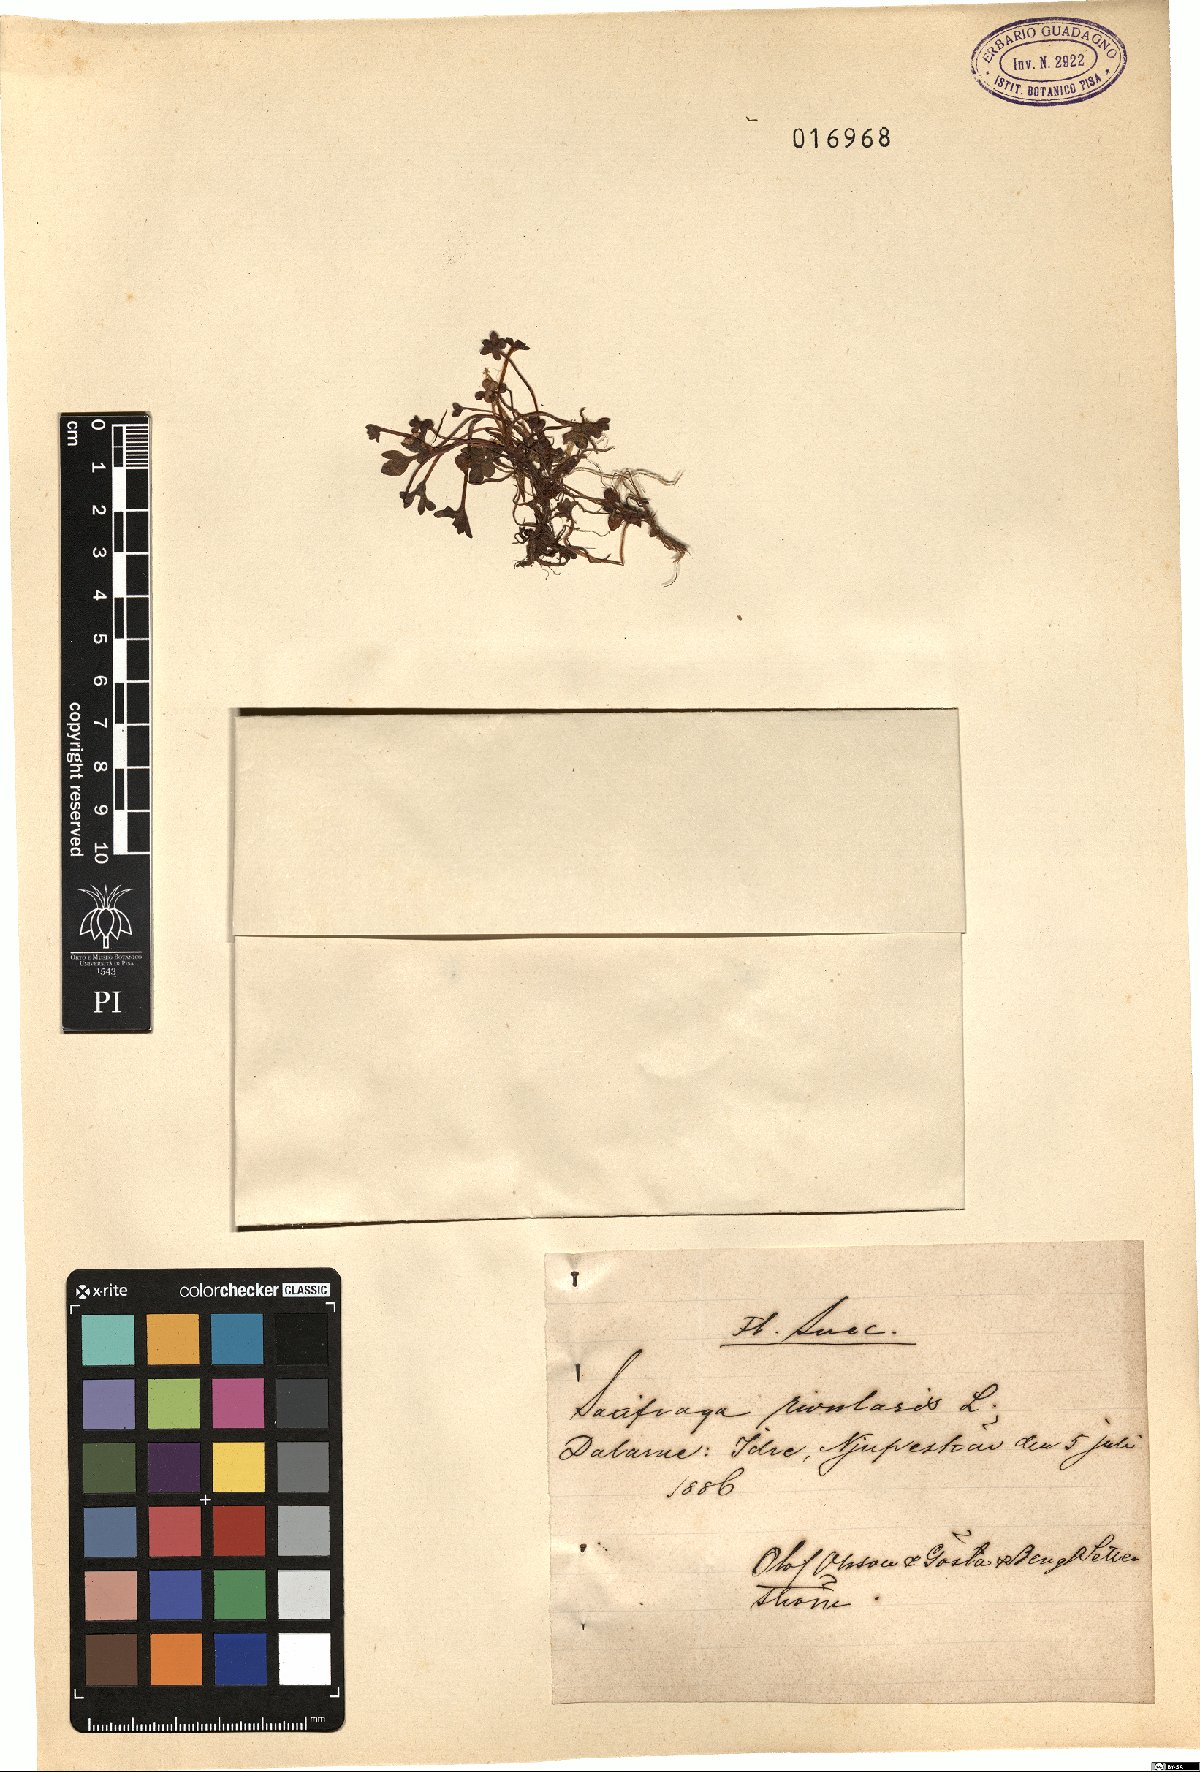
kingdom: Plantae
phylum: Tracheophyta
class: Magnoliopsida
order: Saxifragales
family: Saxifragaceae
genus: Saxifraga
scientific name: Saxifraga rivularis
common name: Highland saxifrage
